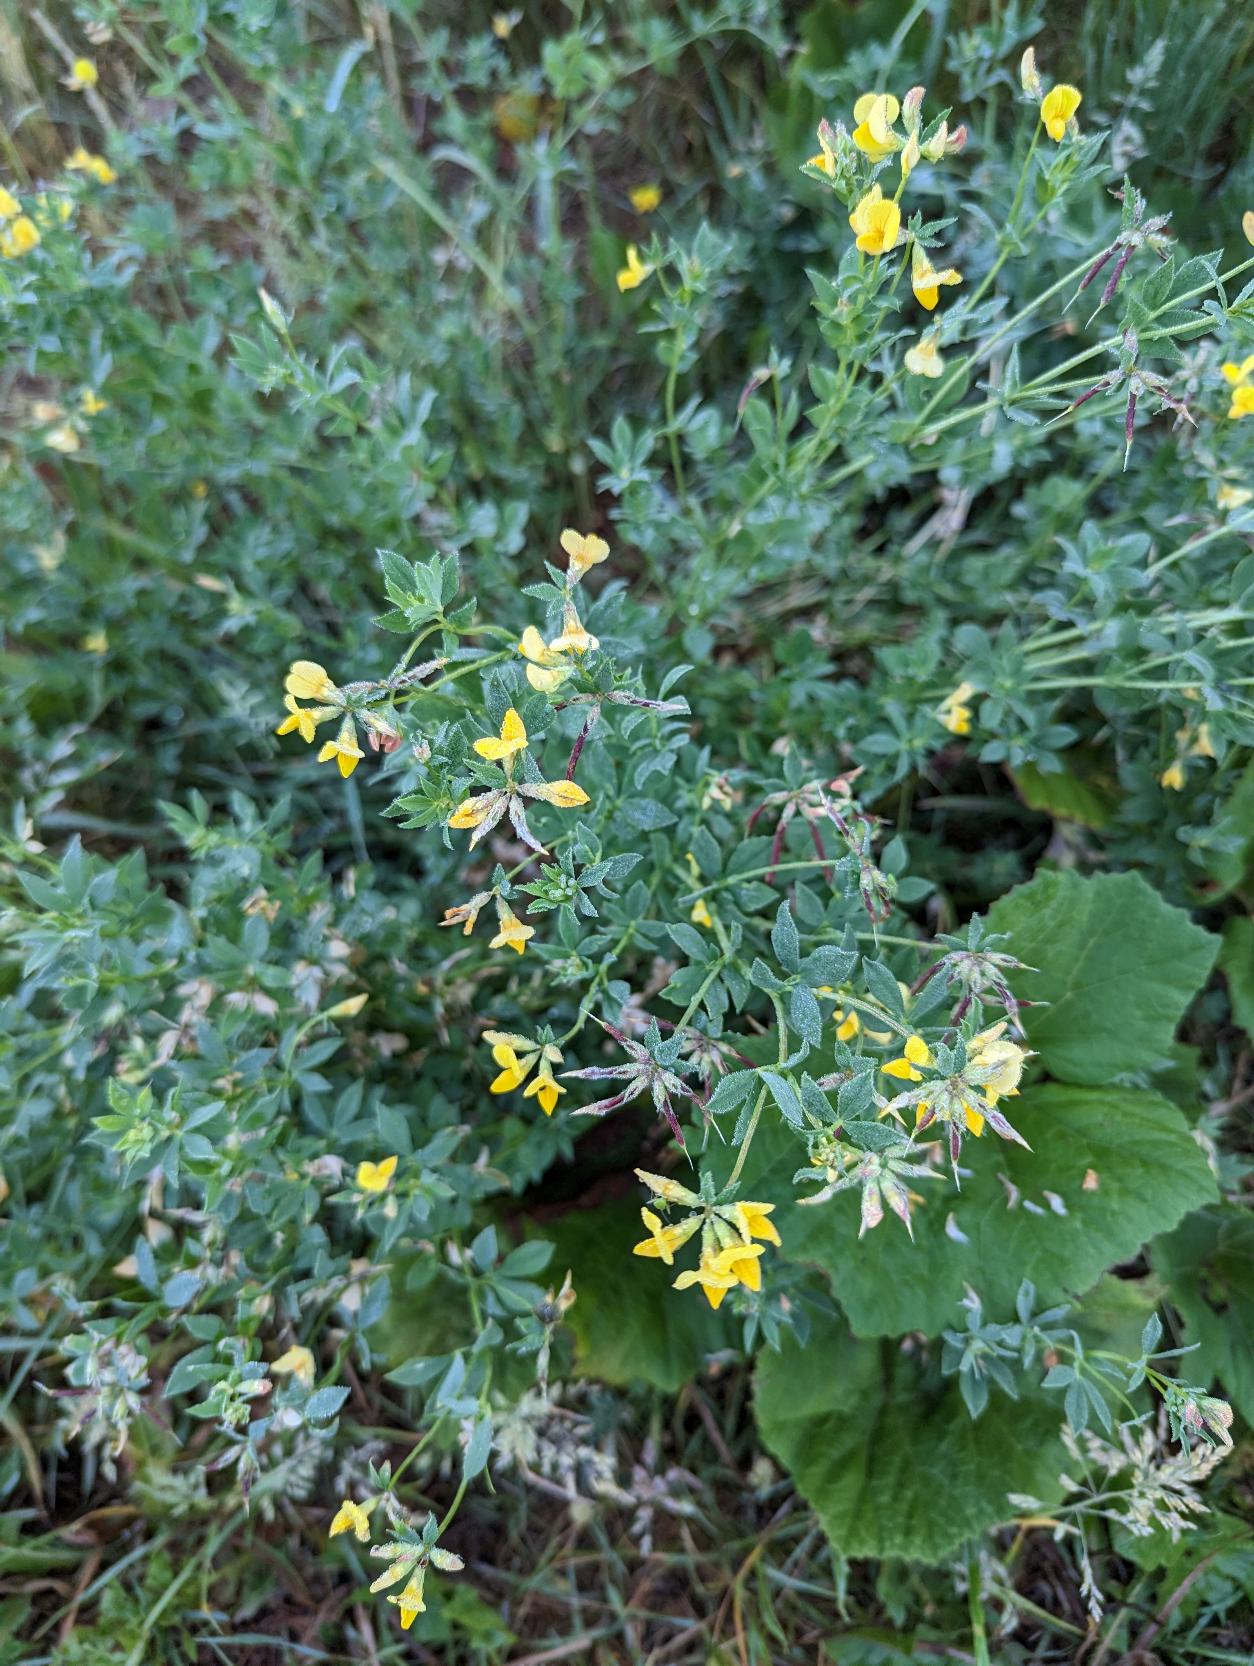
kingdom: Plantae
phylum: Tracheophyta
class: Magnoliopsida
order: Fabales
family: Fabaceae
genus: Lotus
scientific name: Lotus corniculatus
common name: Almindelig kællingetand
